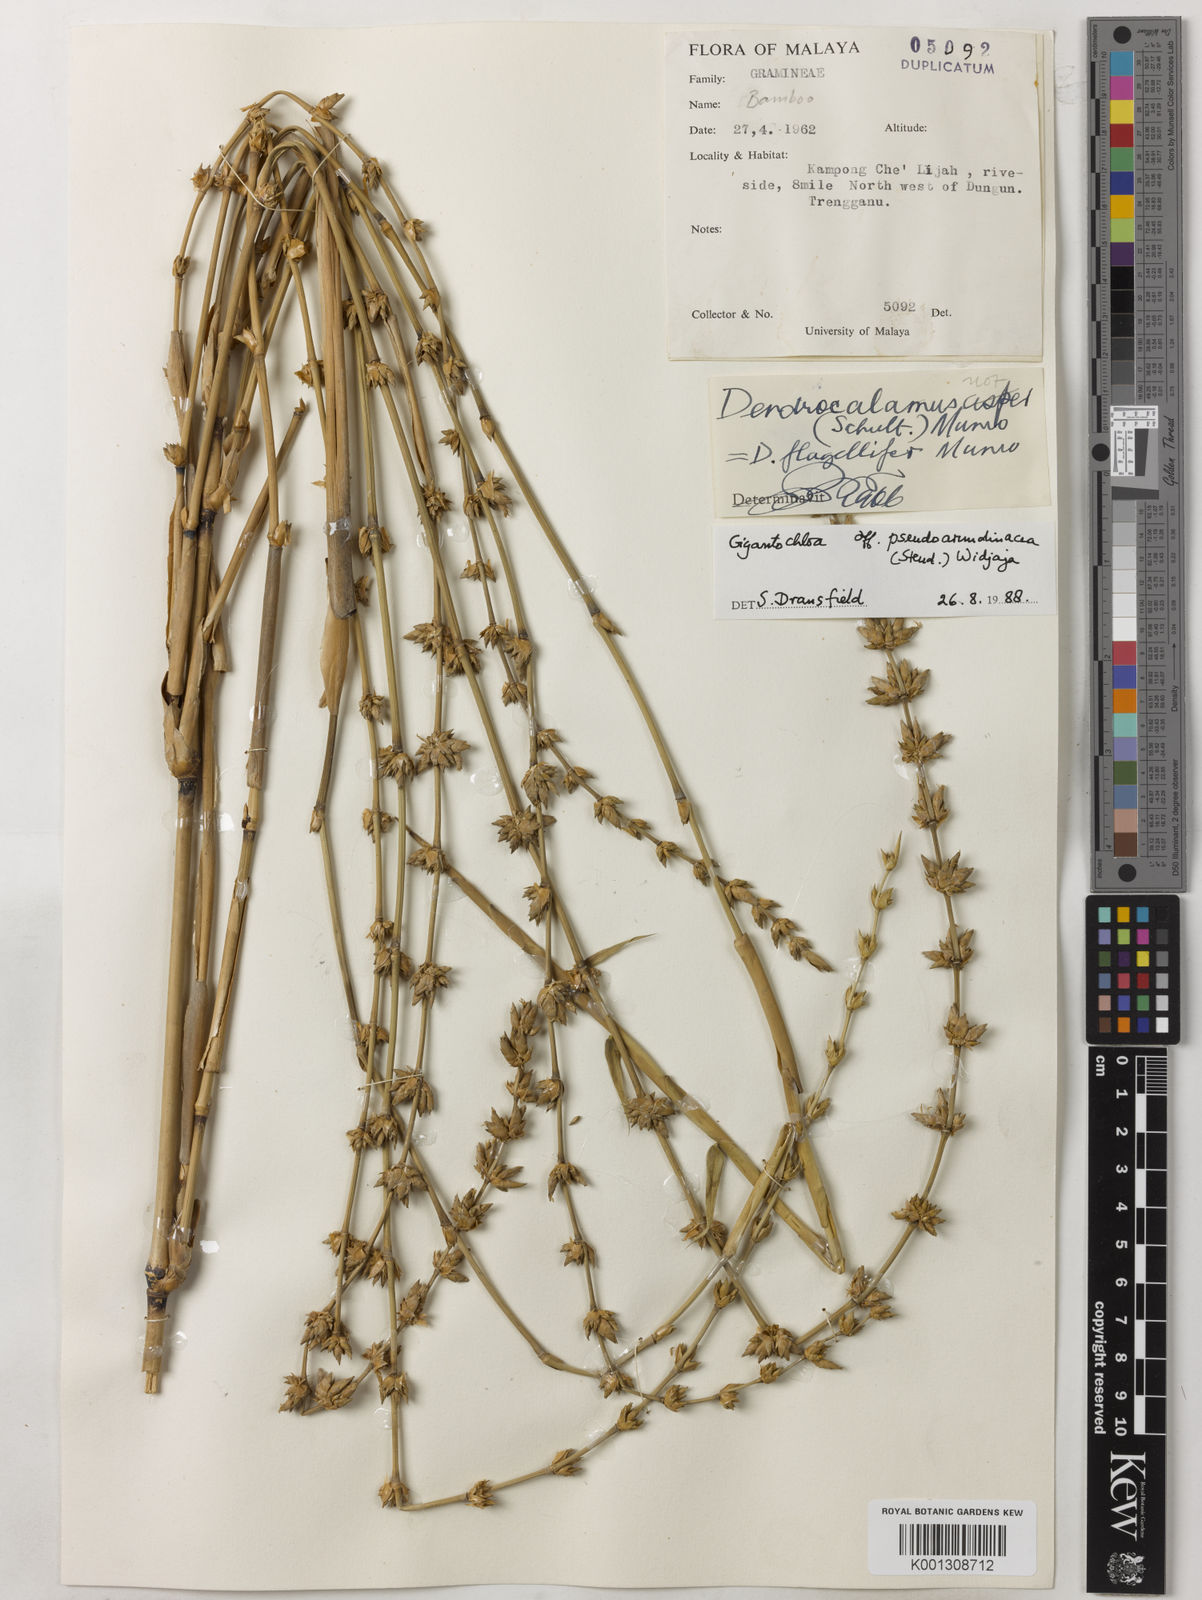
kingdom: Plantae
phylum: Tracheophyta
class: Liliopsida
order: Poales
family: Poaceae
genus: Gigantochloa
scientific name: Gigantochloa verticillata
